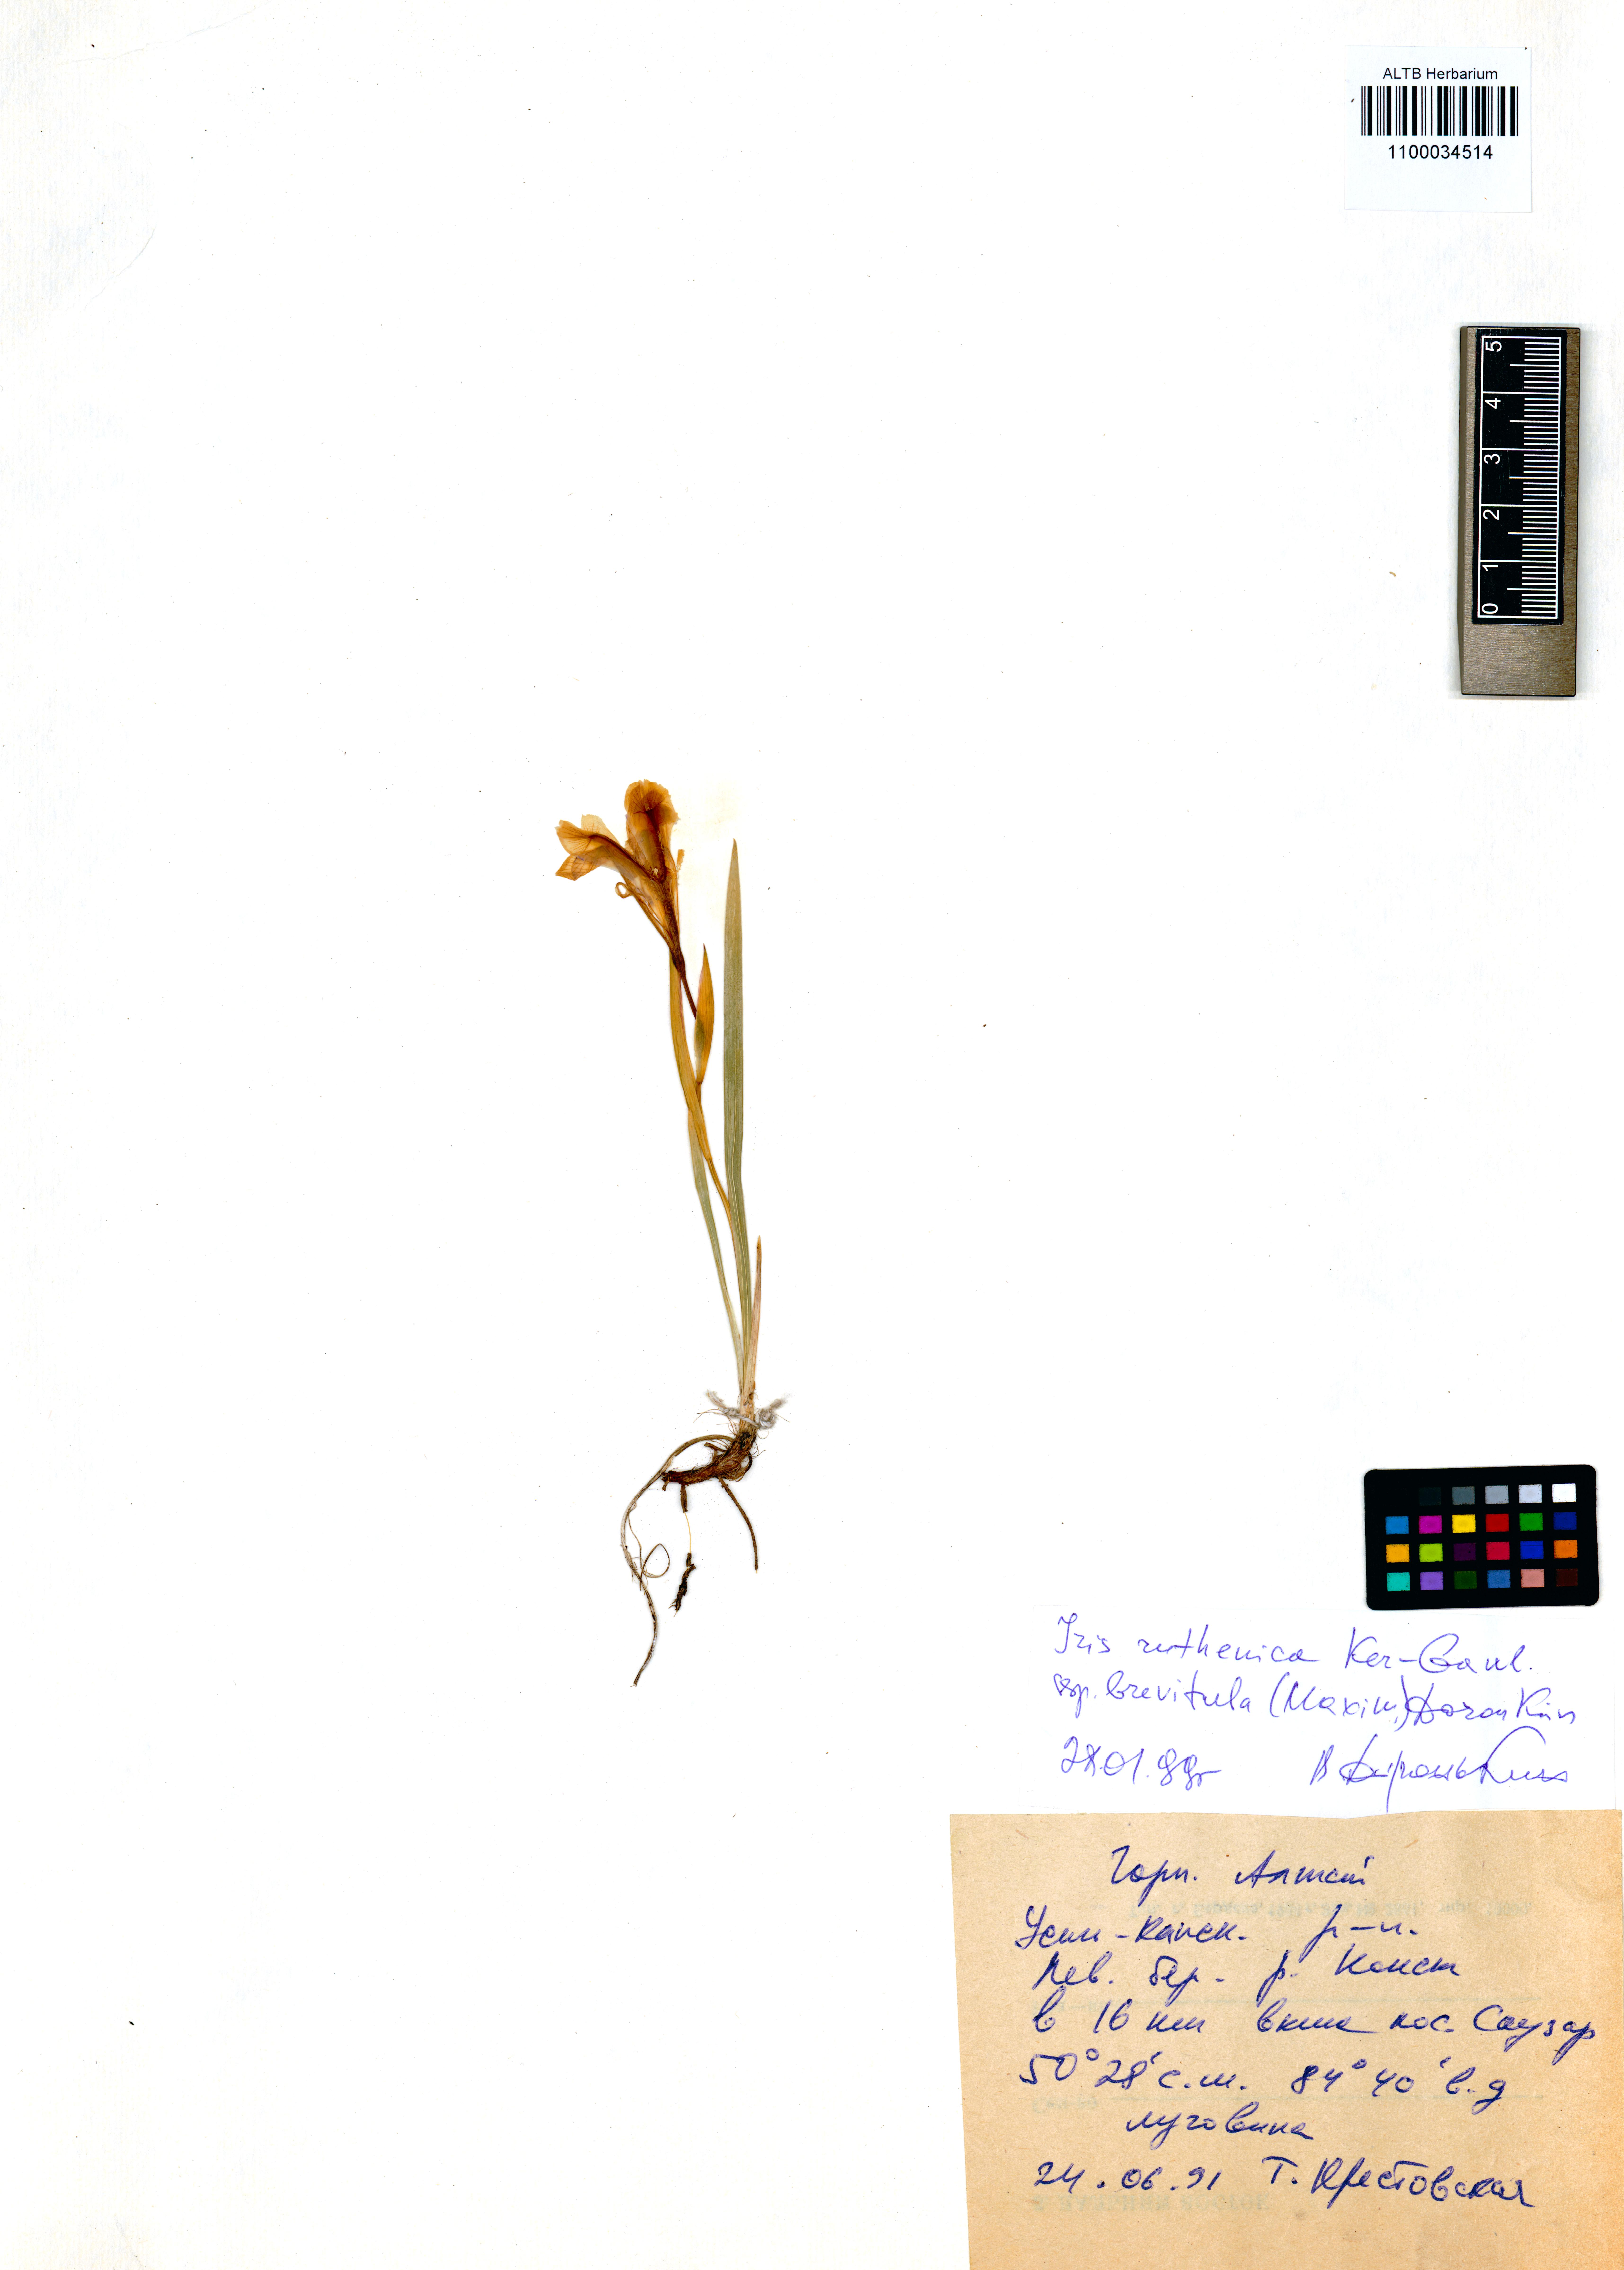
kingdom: Plantae
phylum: Tracheophyta
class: Liliopsida
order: Asparagales
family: Iridaceae
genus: Iris
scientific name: Iris ruthenica
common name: Purple-bract iris
